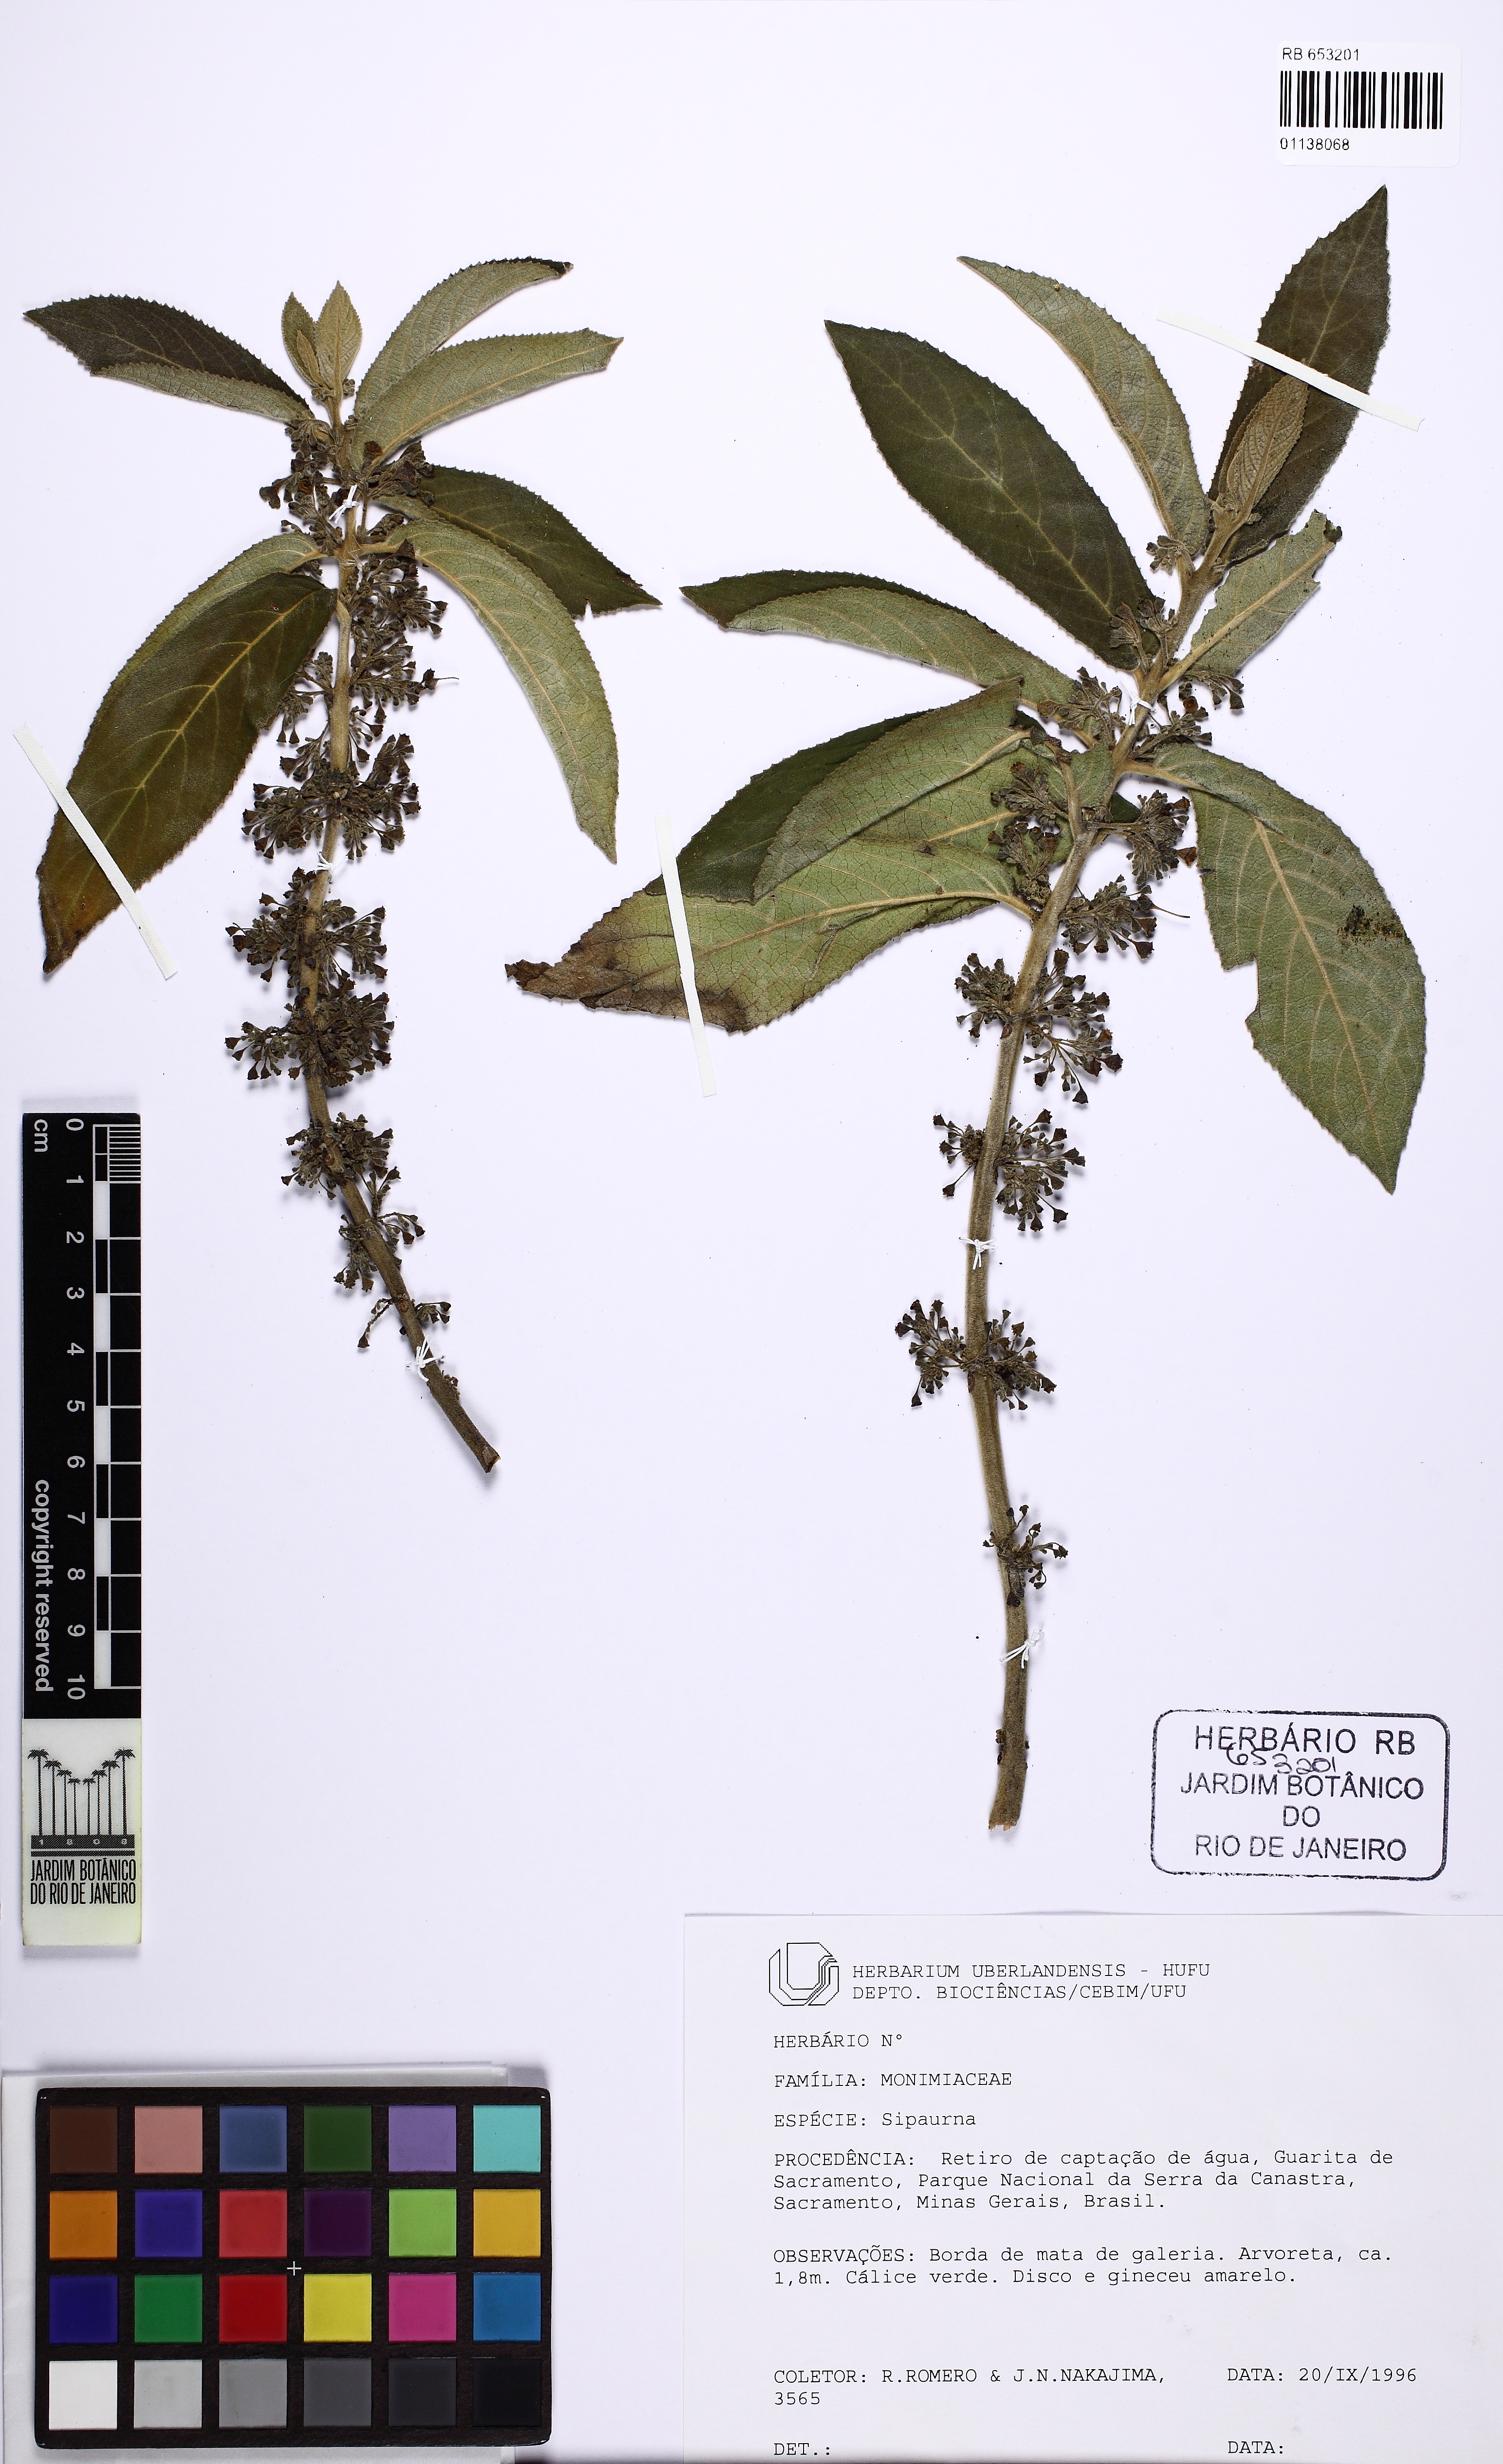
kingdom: Plantae
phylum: Tracheophyta
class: Magnoliopsida
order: Laurales
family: Siparunaceae
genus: Siparuna
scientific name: Siparuna brasiliensis
